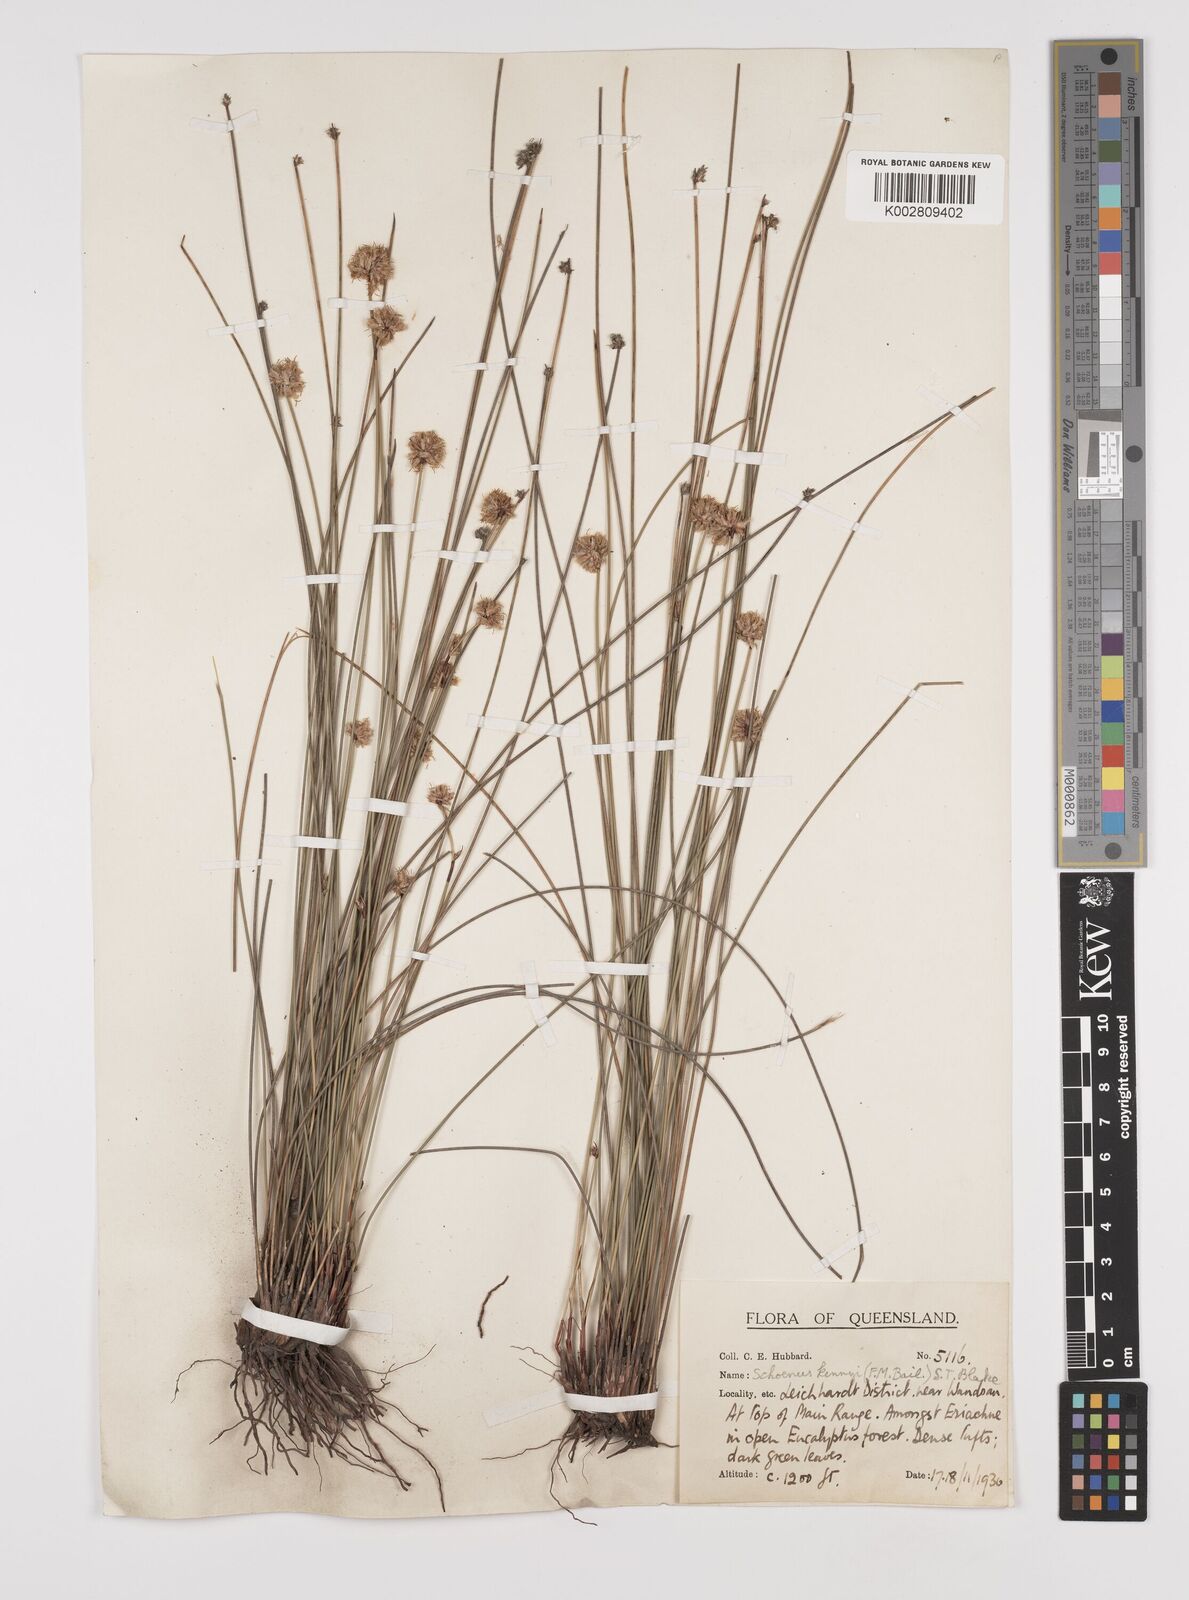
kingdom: Plantae
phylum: Tracheophyta
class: Liliopsida
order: Poales
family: Cyperaceae
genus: Schoenus
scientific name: Schoenus kennyi
